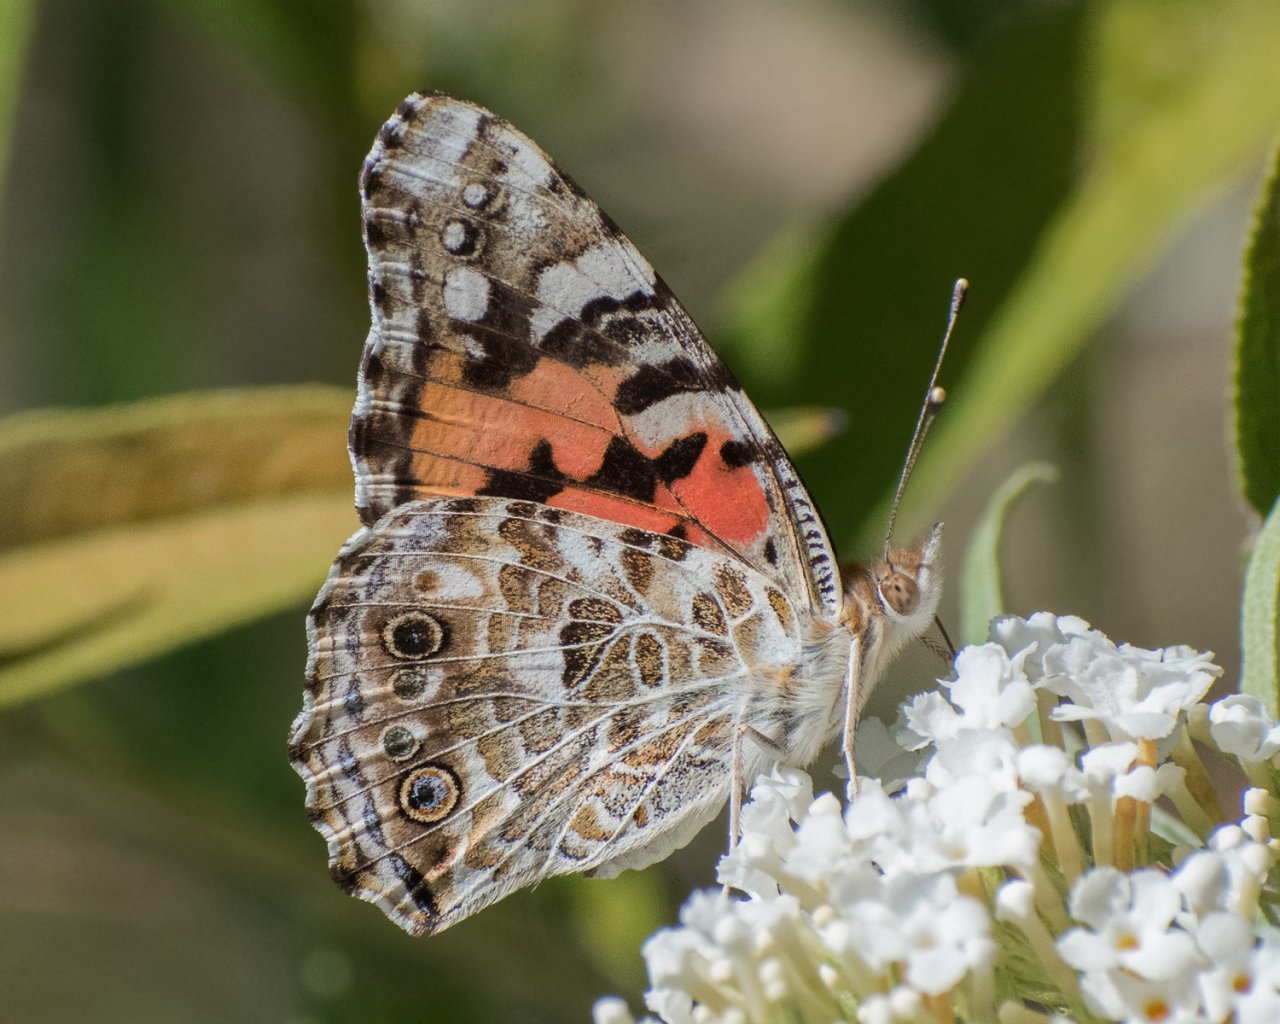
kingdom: Animalia
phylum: Arthropoda
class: Insecta
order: Lepidoptera
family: Nymphalidae
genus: Vanessa
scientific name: Vanessa cardui
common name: Painted Lady
